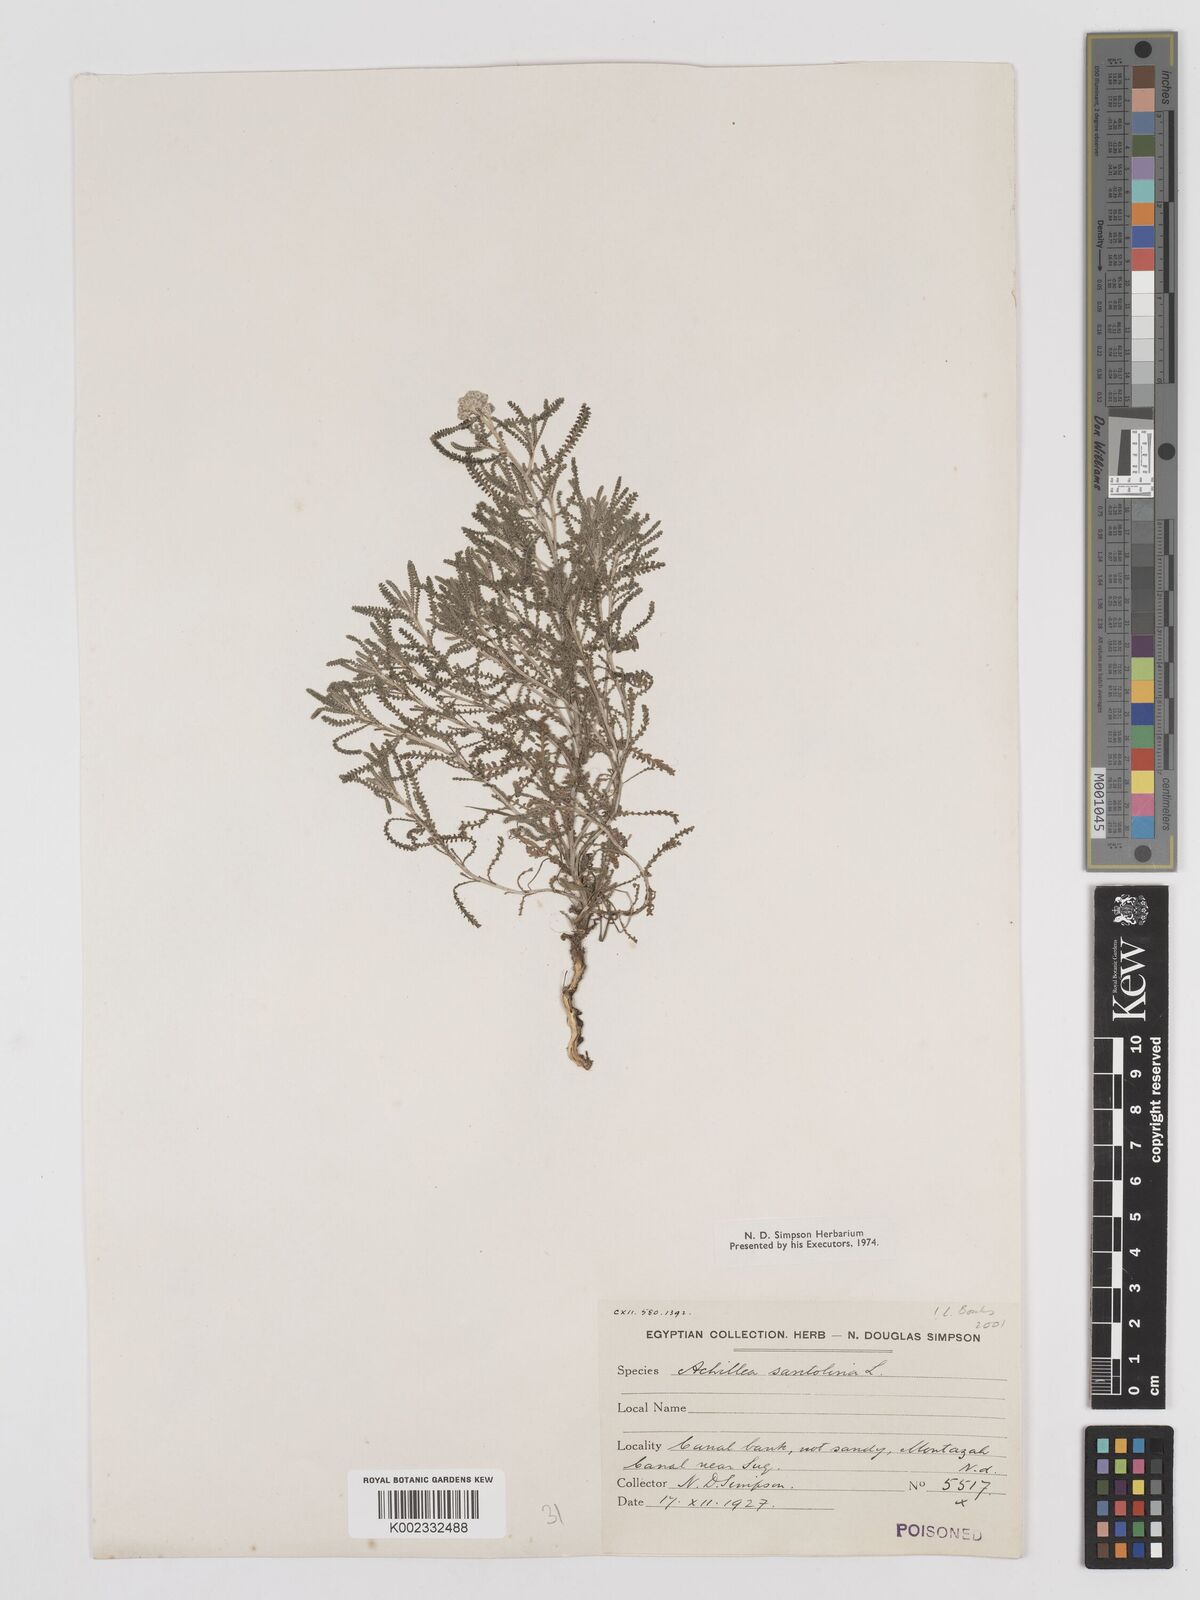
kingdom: Plantae
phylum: Tracheophyta
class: Magnoliopsida
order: Asterales
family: Asteraceae
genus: Achillea
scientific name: Achillea tenuifolia
